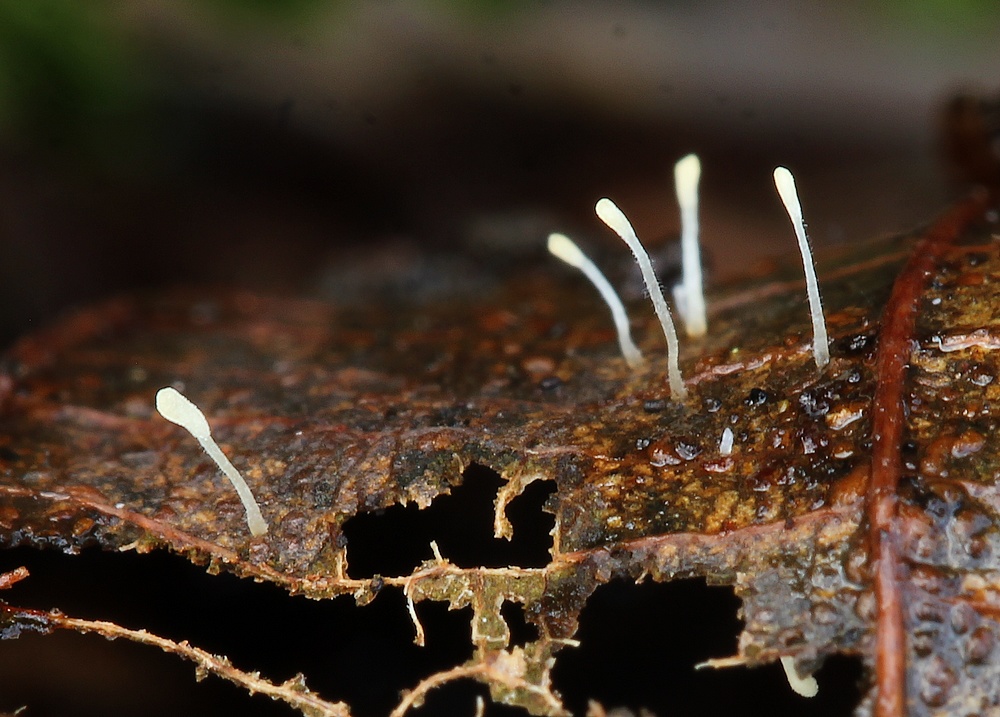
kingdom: Fungi
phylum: Basidiomycota
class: Agaricomycetes
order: Agaricales
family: Typhulaceae
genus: Typhula
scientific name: Typhula setipes
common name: liden trådkølle
